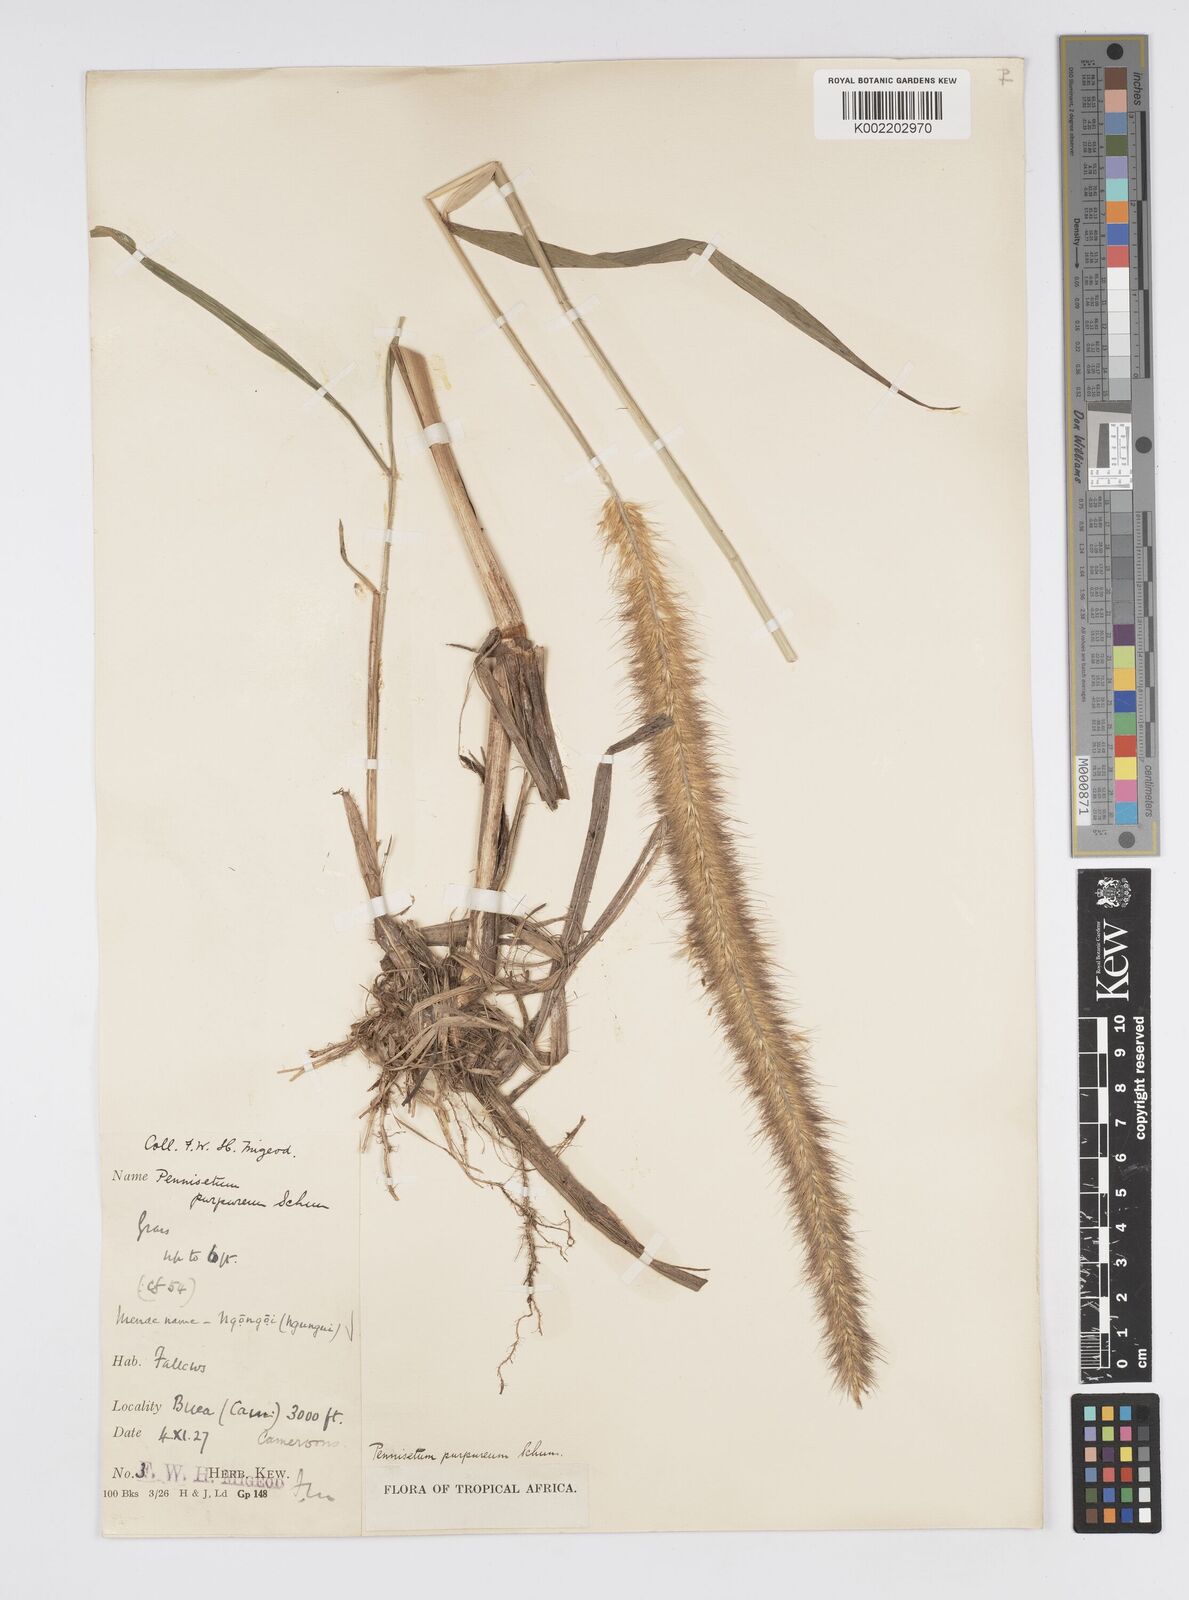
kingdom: Plantae
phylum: Tracheophyta
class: Liliopsida
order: Poales
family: Poaceae
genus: Cenchrus
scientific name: Cenchrus purpureus
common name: Elephant grass
